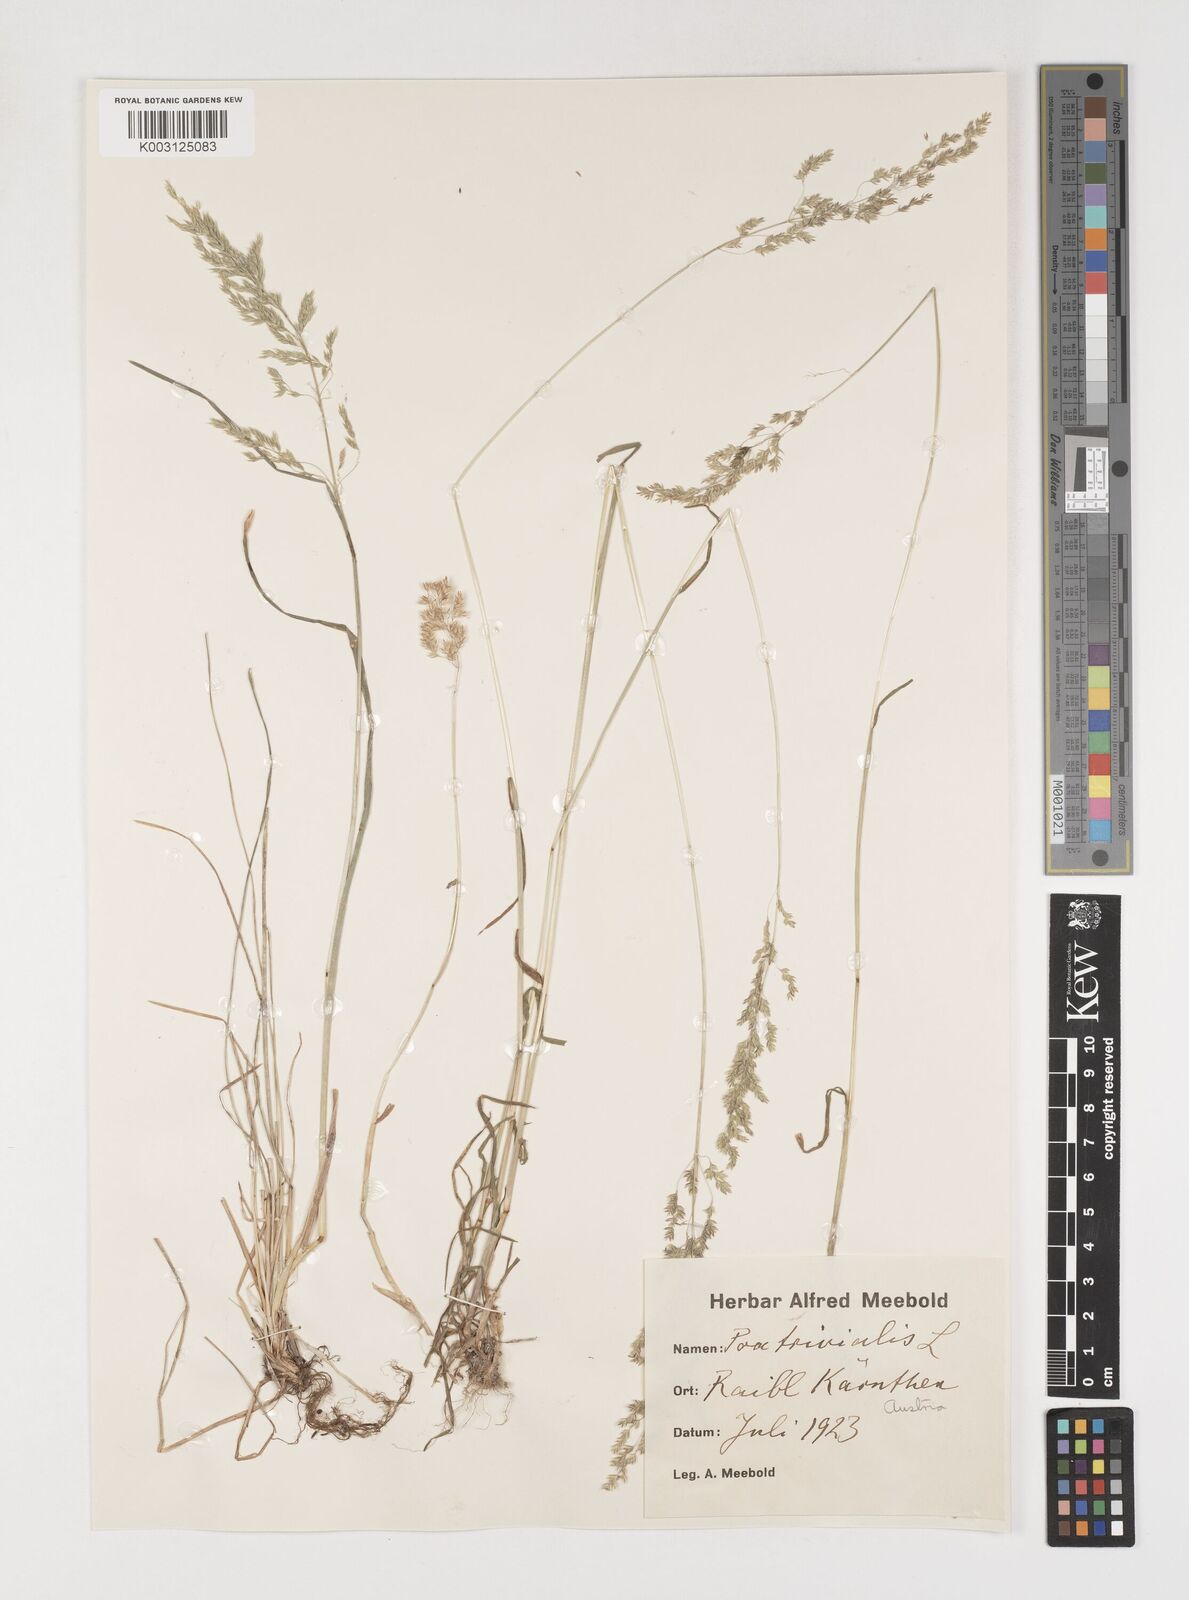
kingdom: Plantae
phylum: Tracheophyta
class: Liliopsida
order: Poales
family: Poaceae
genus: Poa
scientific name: Poa trivialis
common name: Rough bluegrass
